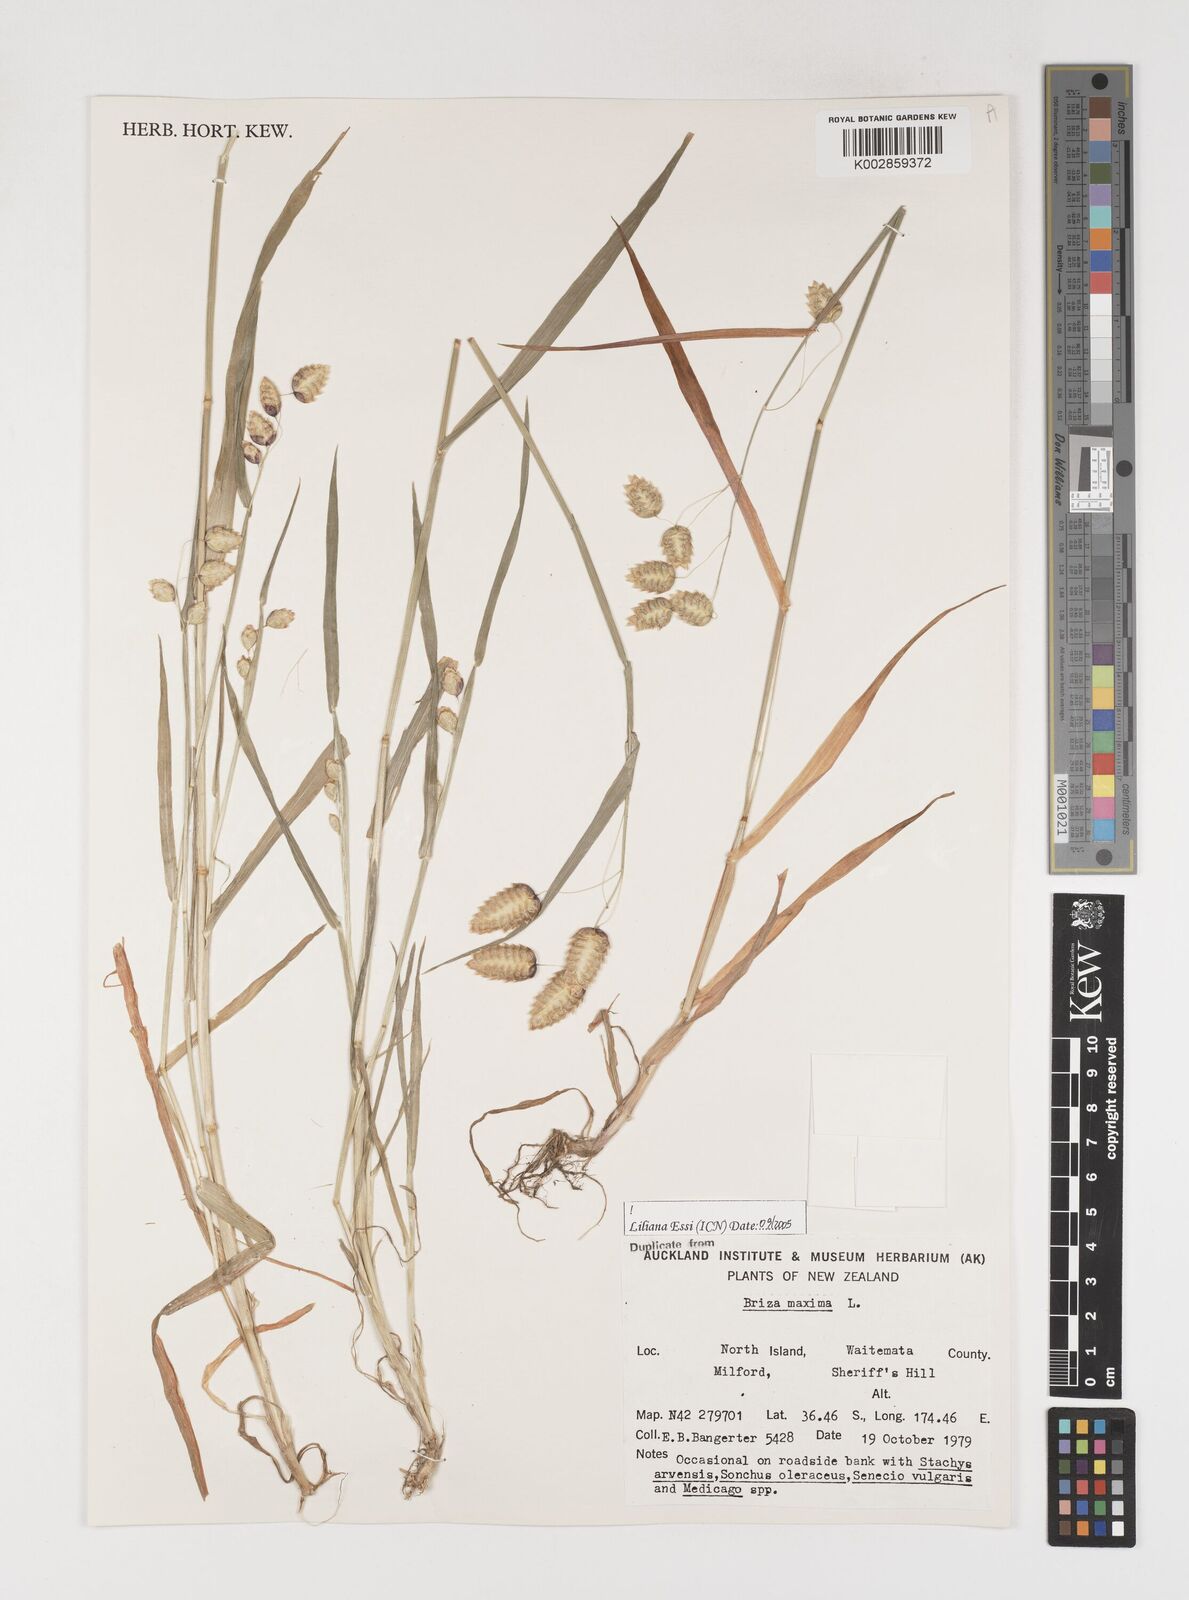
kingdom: Plantae
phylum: Tracheophyta
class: Liliopsida
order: Poales
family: Poaceae
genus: Briza
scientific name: Briza maxima
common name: Big quakinggrass
